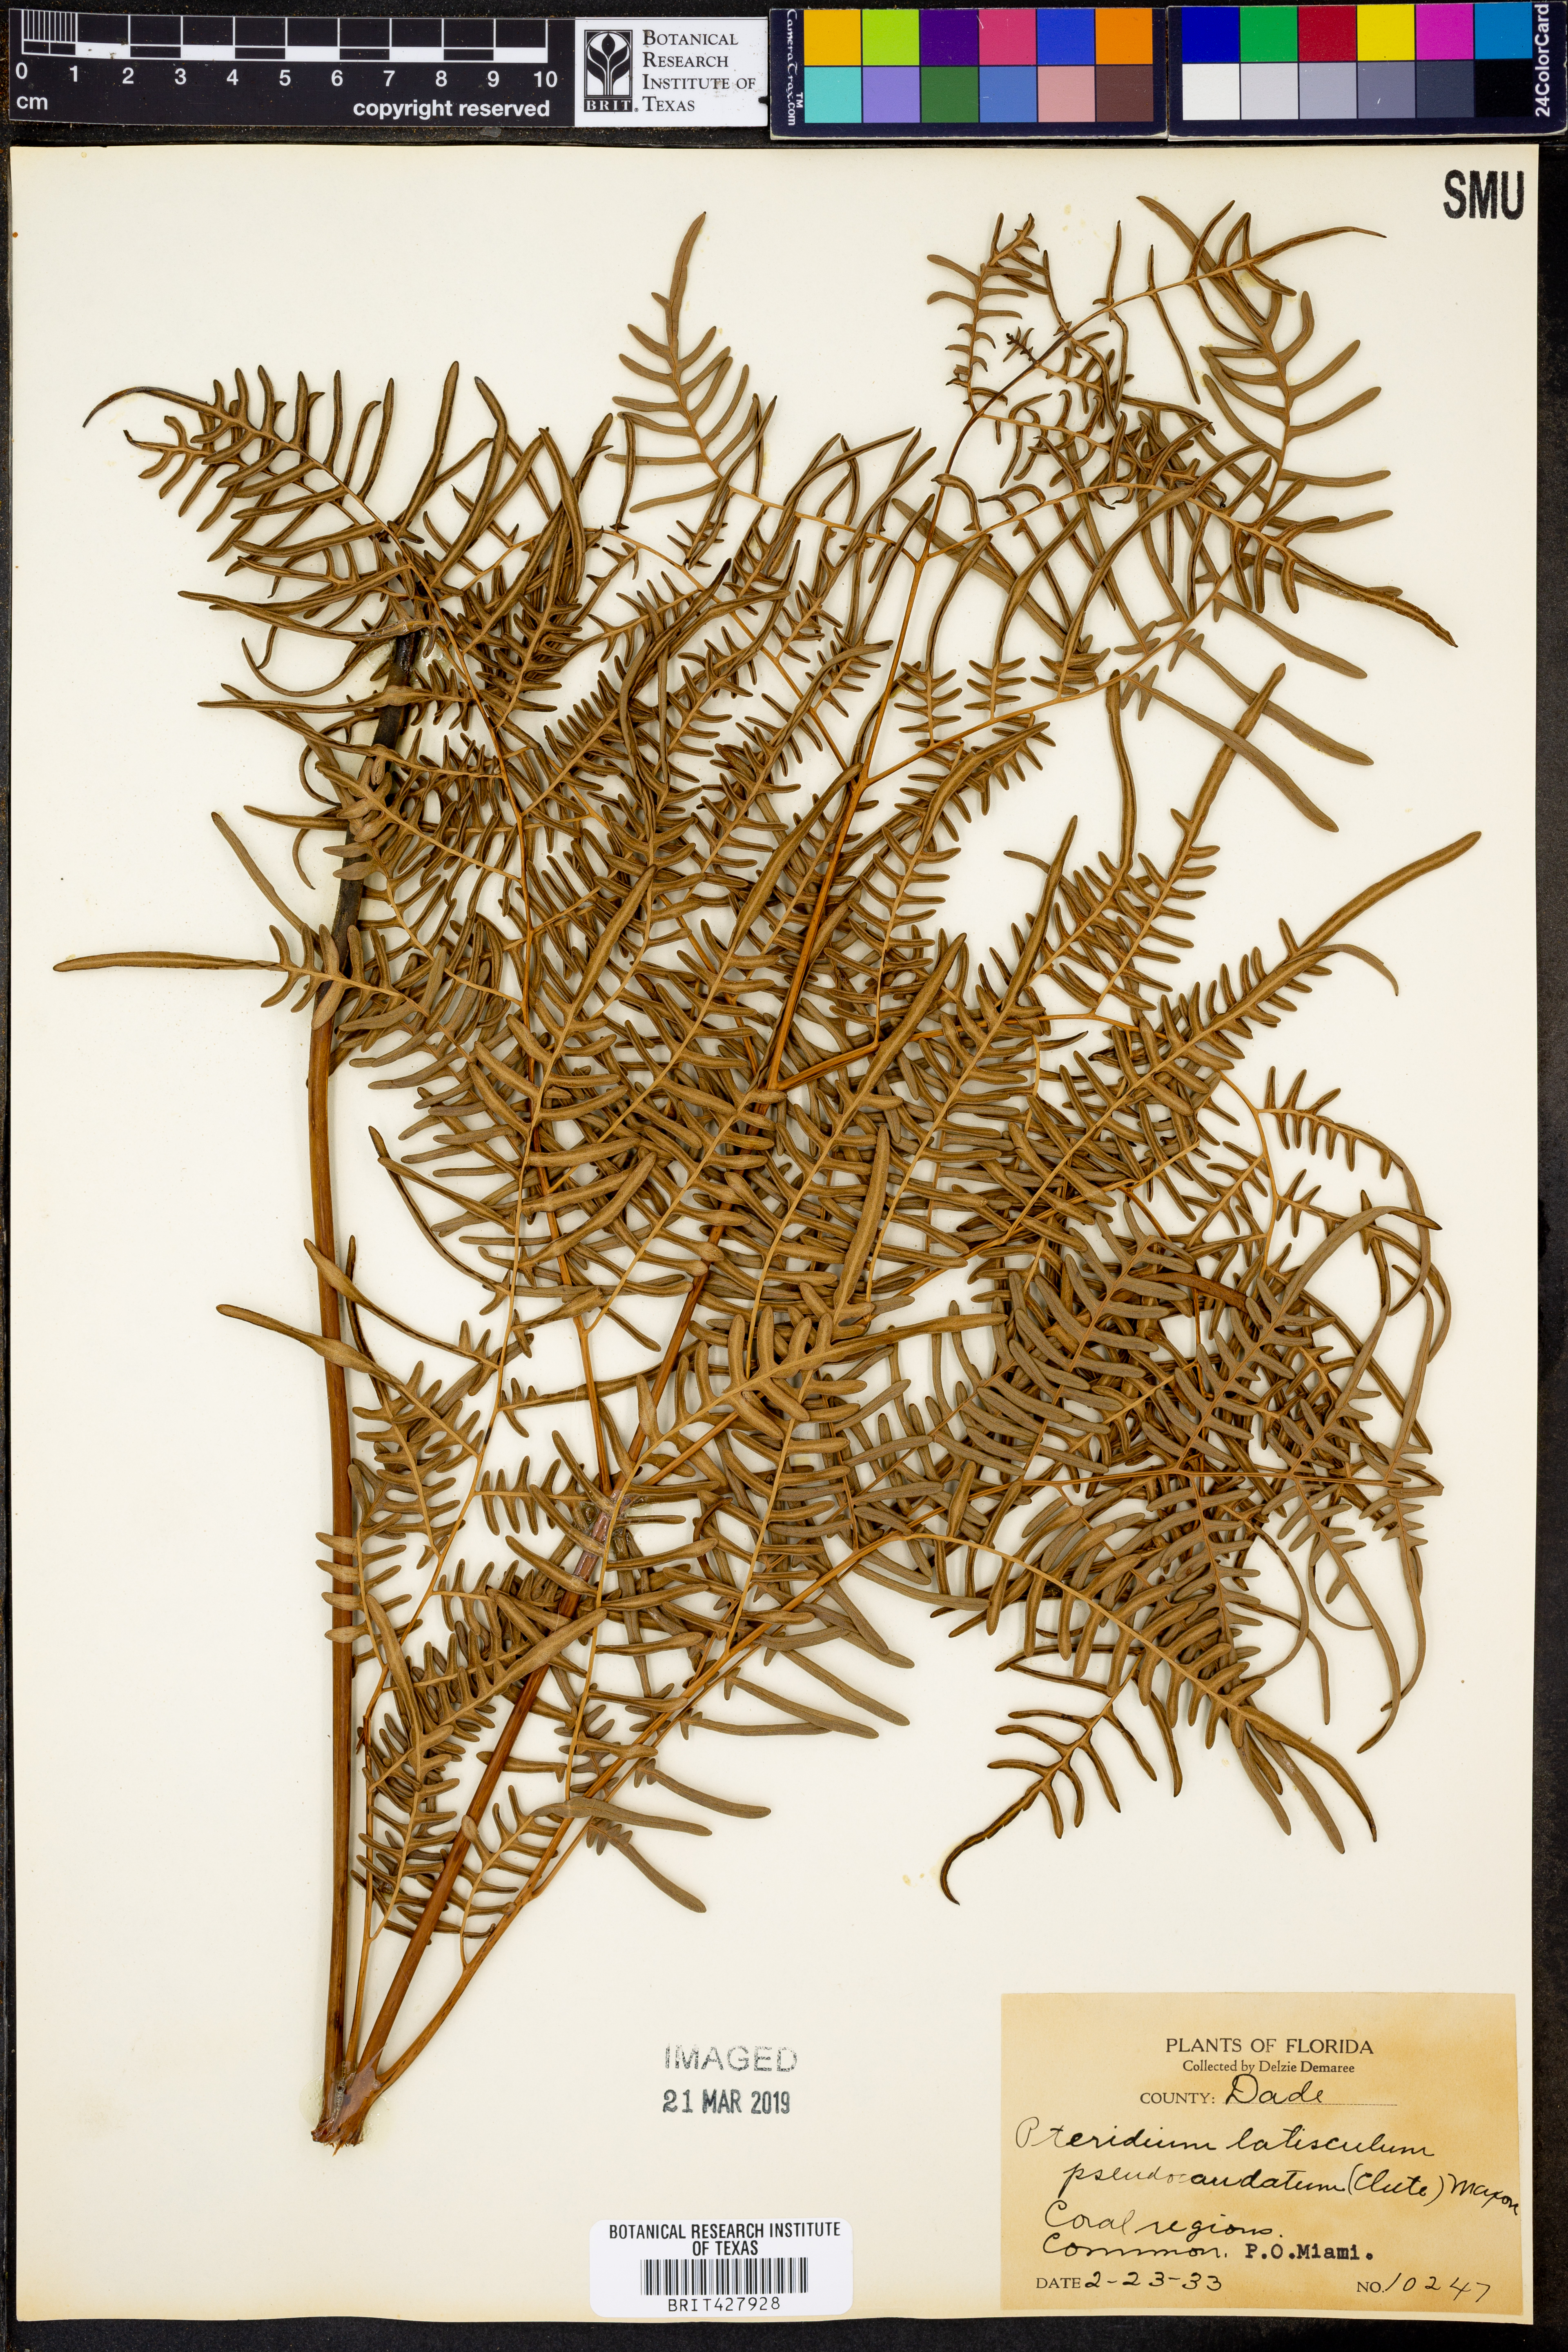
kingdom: Plantae
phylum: Tracheophyta
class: Polypodiopsida
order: Polypodiales
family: Dennstaedtiaceae
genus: Pteridium
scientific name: Pteridium aquilinum
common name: Bracken
